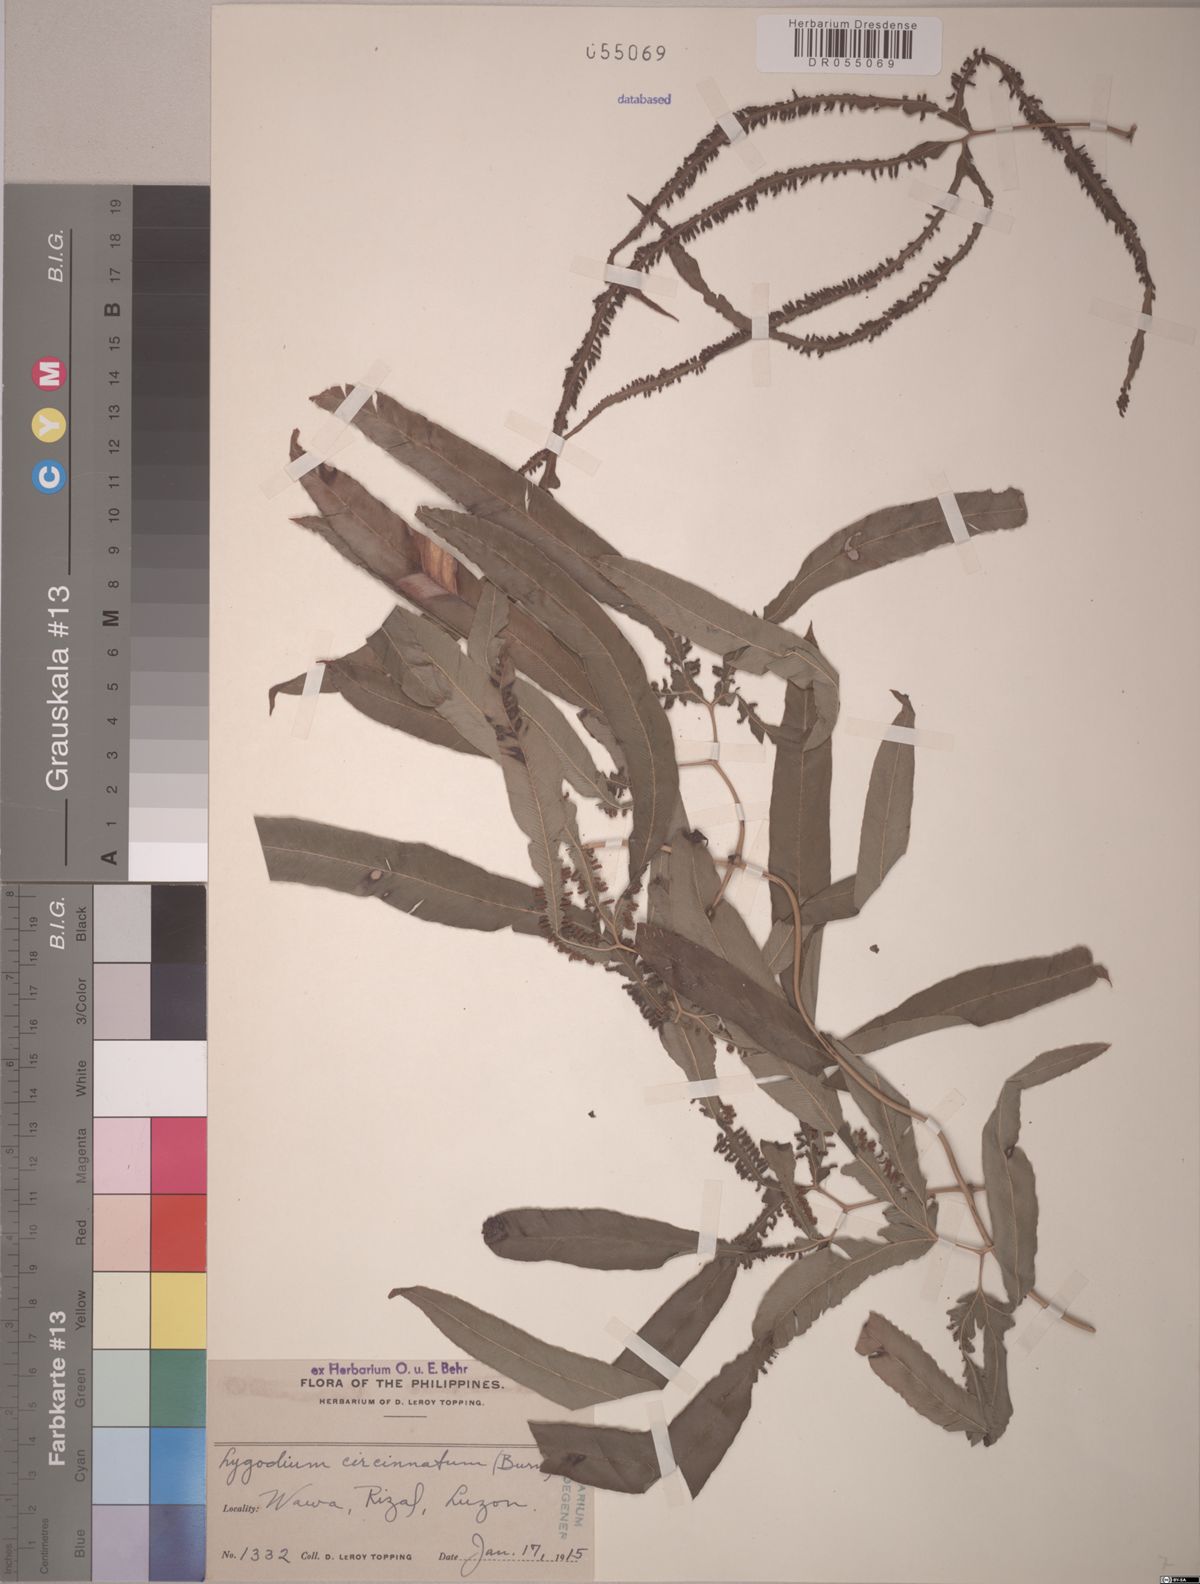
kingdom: Plantae
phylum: Tracheophyta
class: Polypodiopsida
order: Schizaeales
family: Lygodiaceae
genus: Lygodium
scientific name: Lygodium circinnatum
